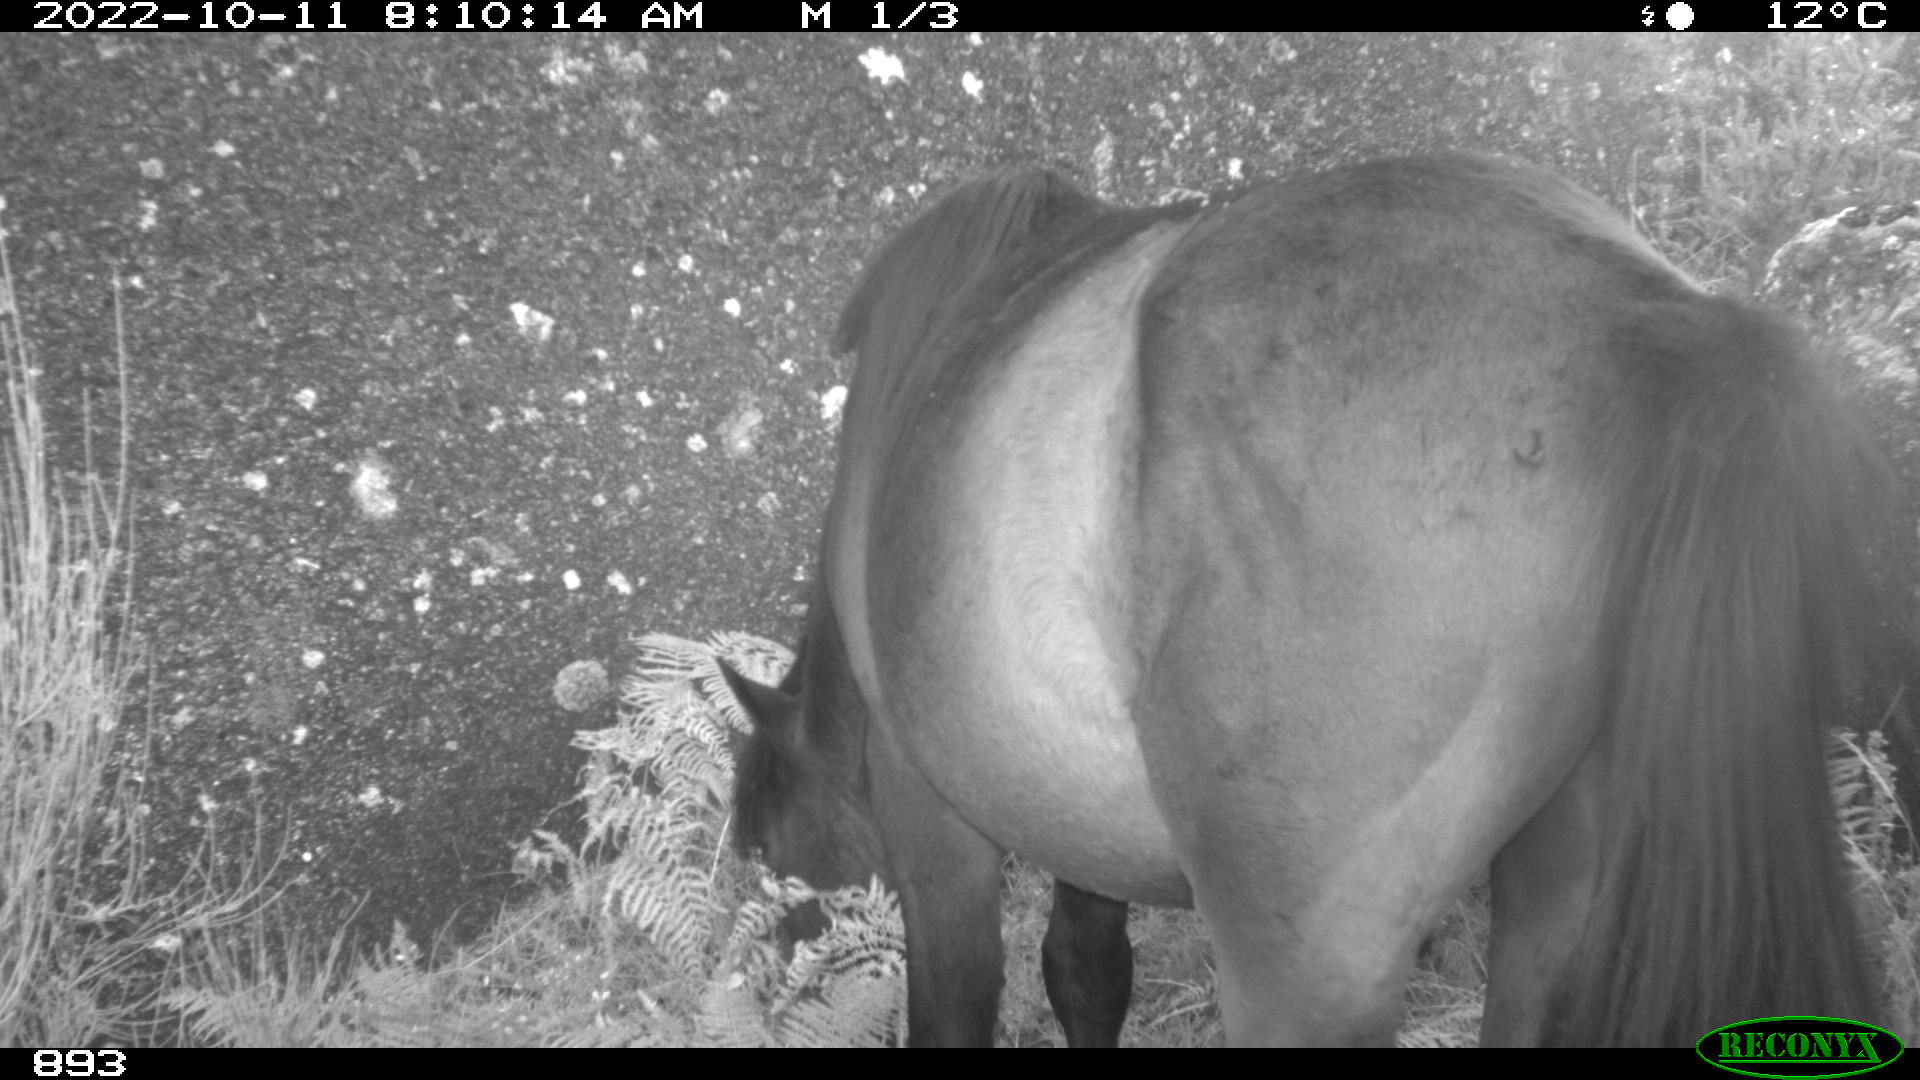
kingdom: Animalia
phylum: Chordata
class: Mammalia
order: Perissodactyla
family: Equidae
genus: Equus
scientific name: Equus caballus
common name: Horse
